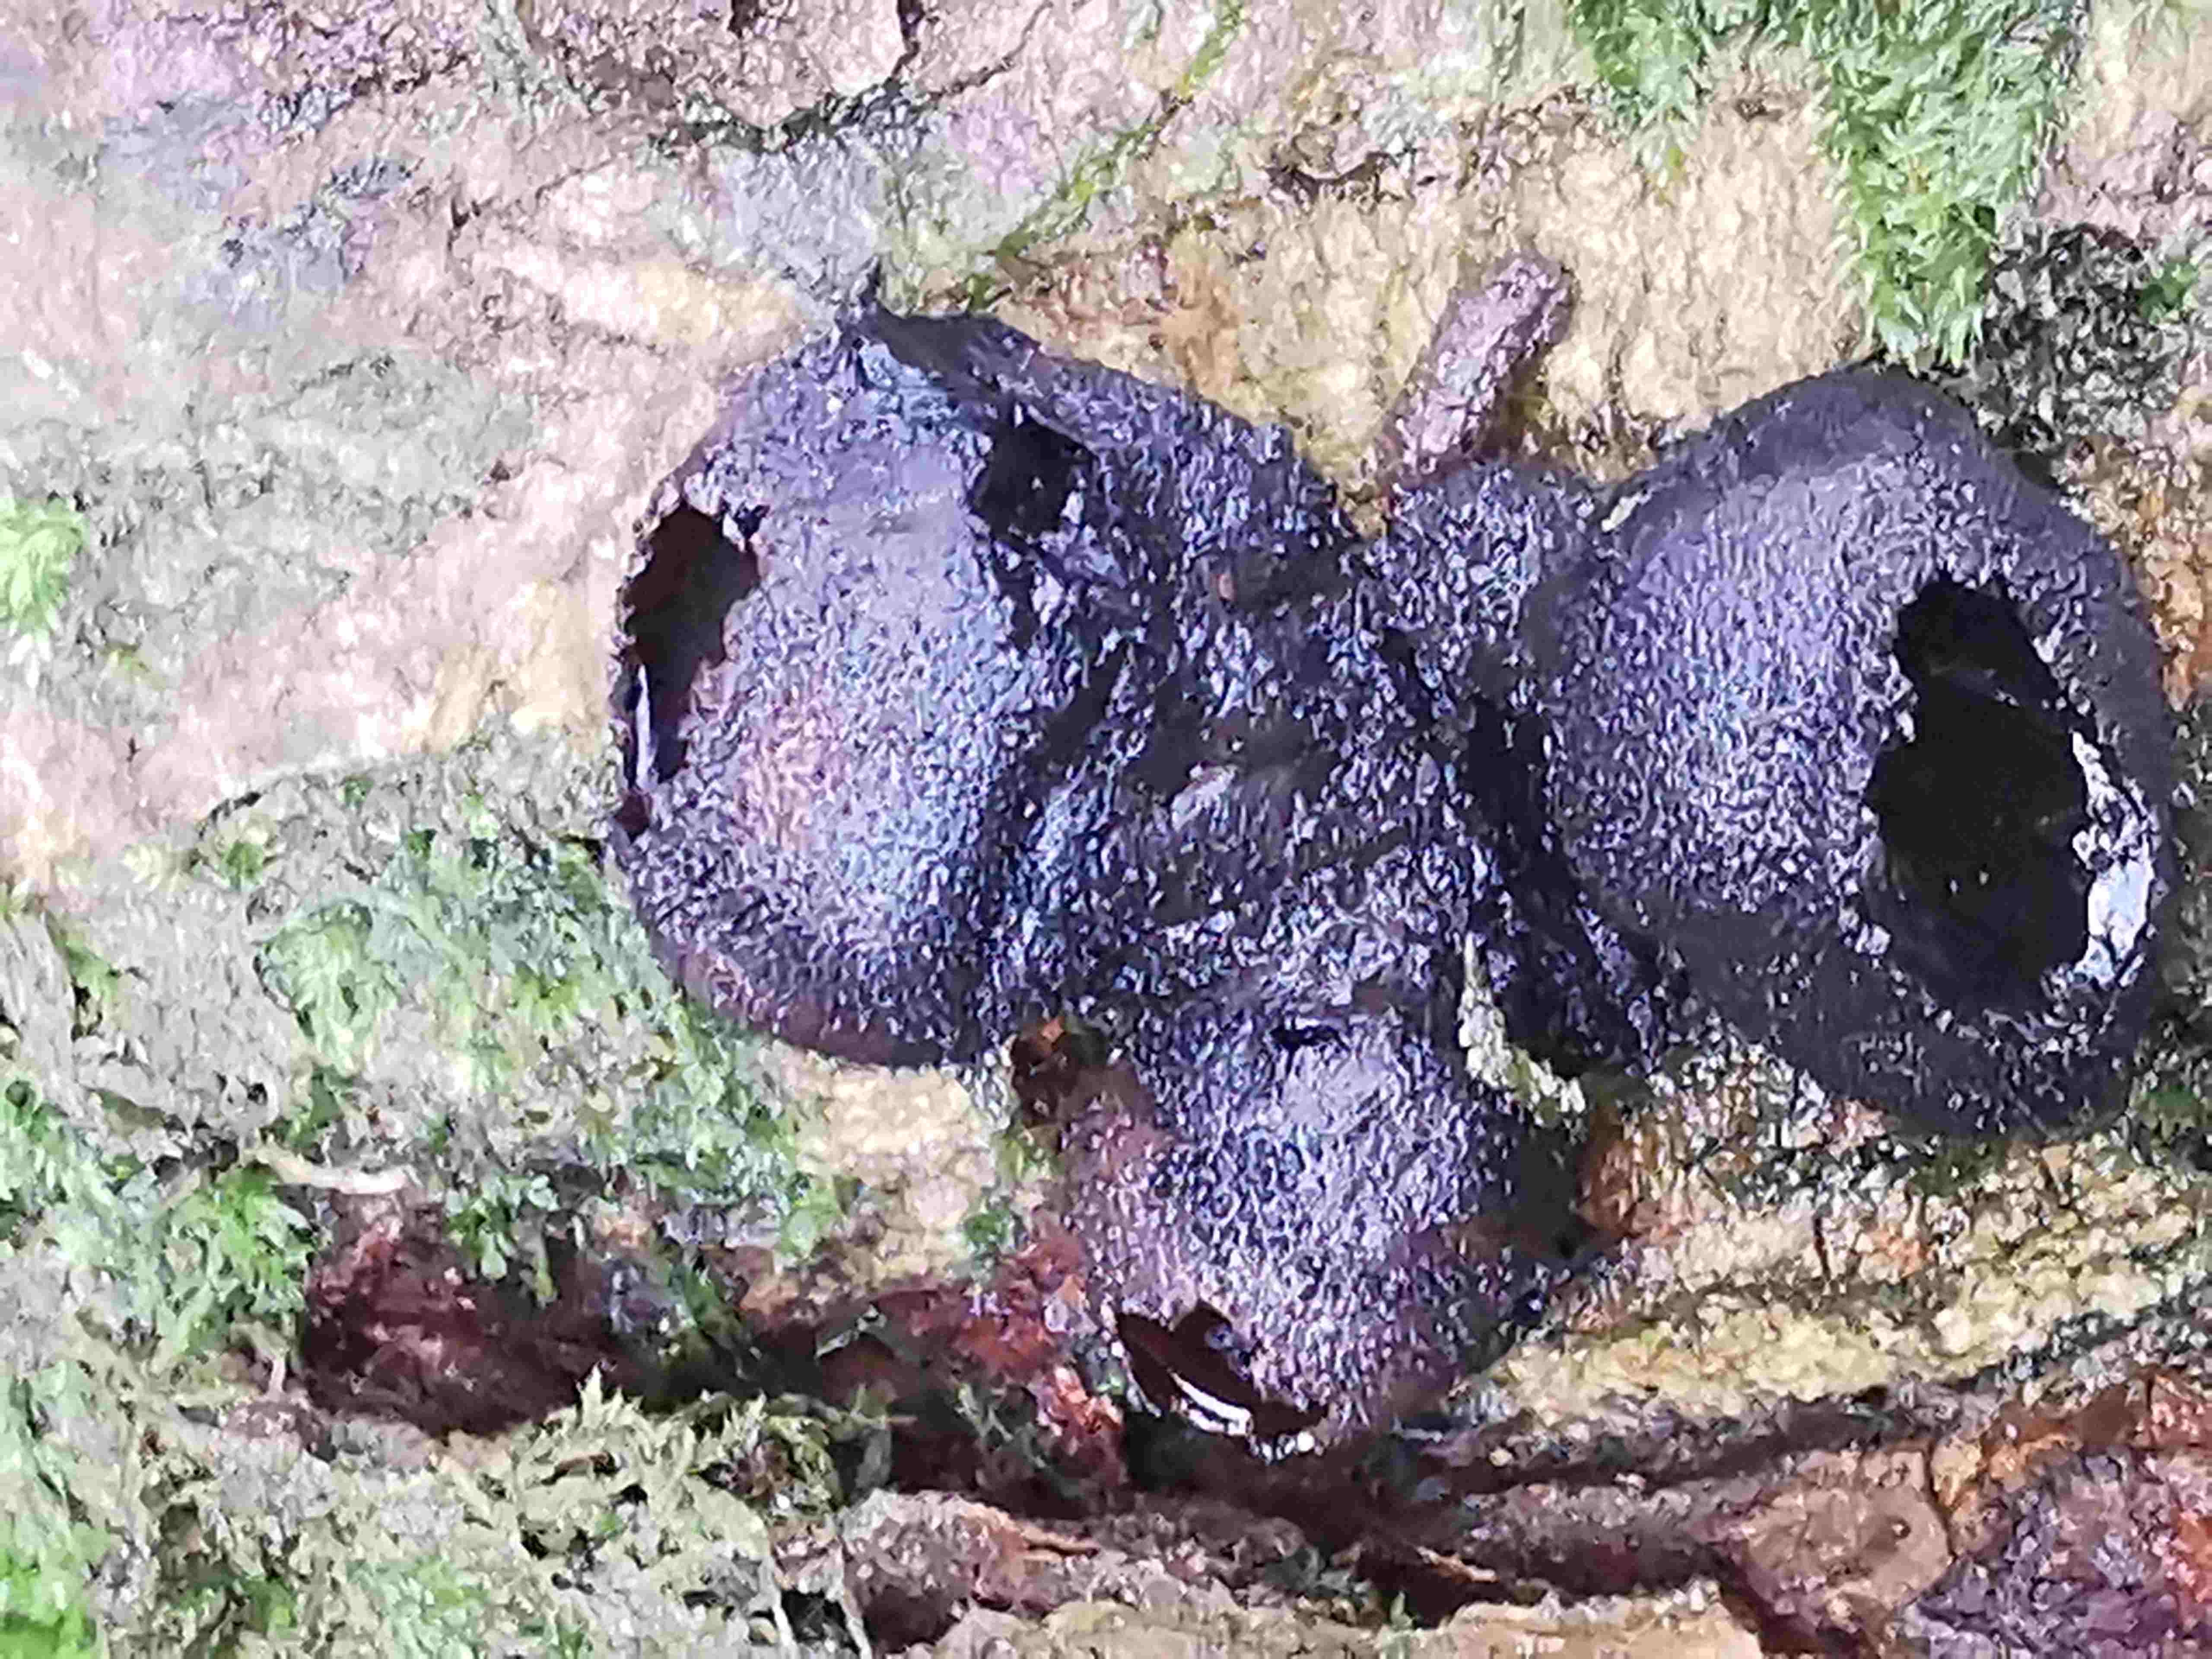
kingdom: Fungi
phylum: Ascomycota
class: Leotiomycetes
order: Phacidiales
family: Phacidiaceae
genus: Bulgaria
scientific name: Bulgaria inquinans
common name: afsmittende topsvamp
